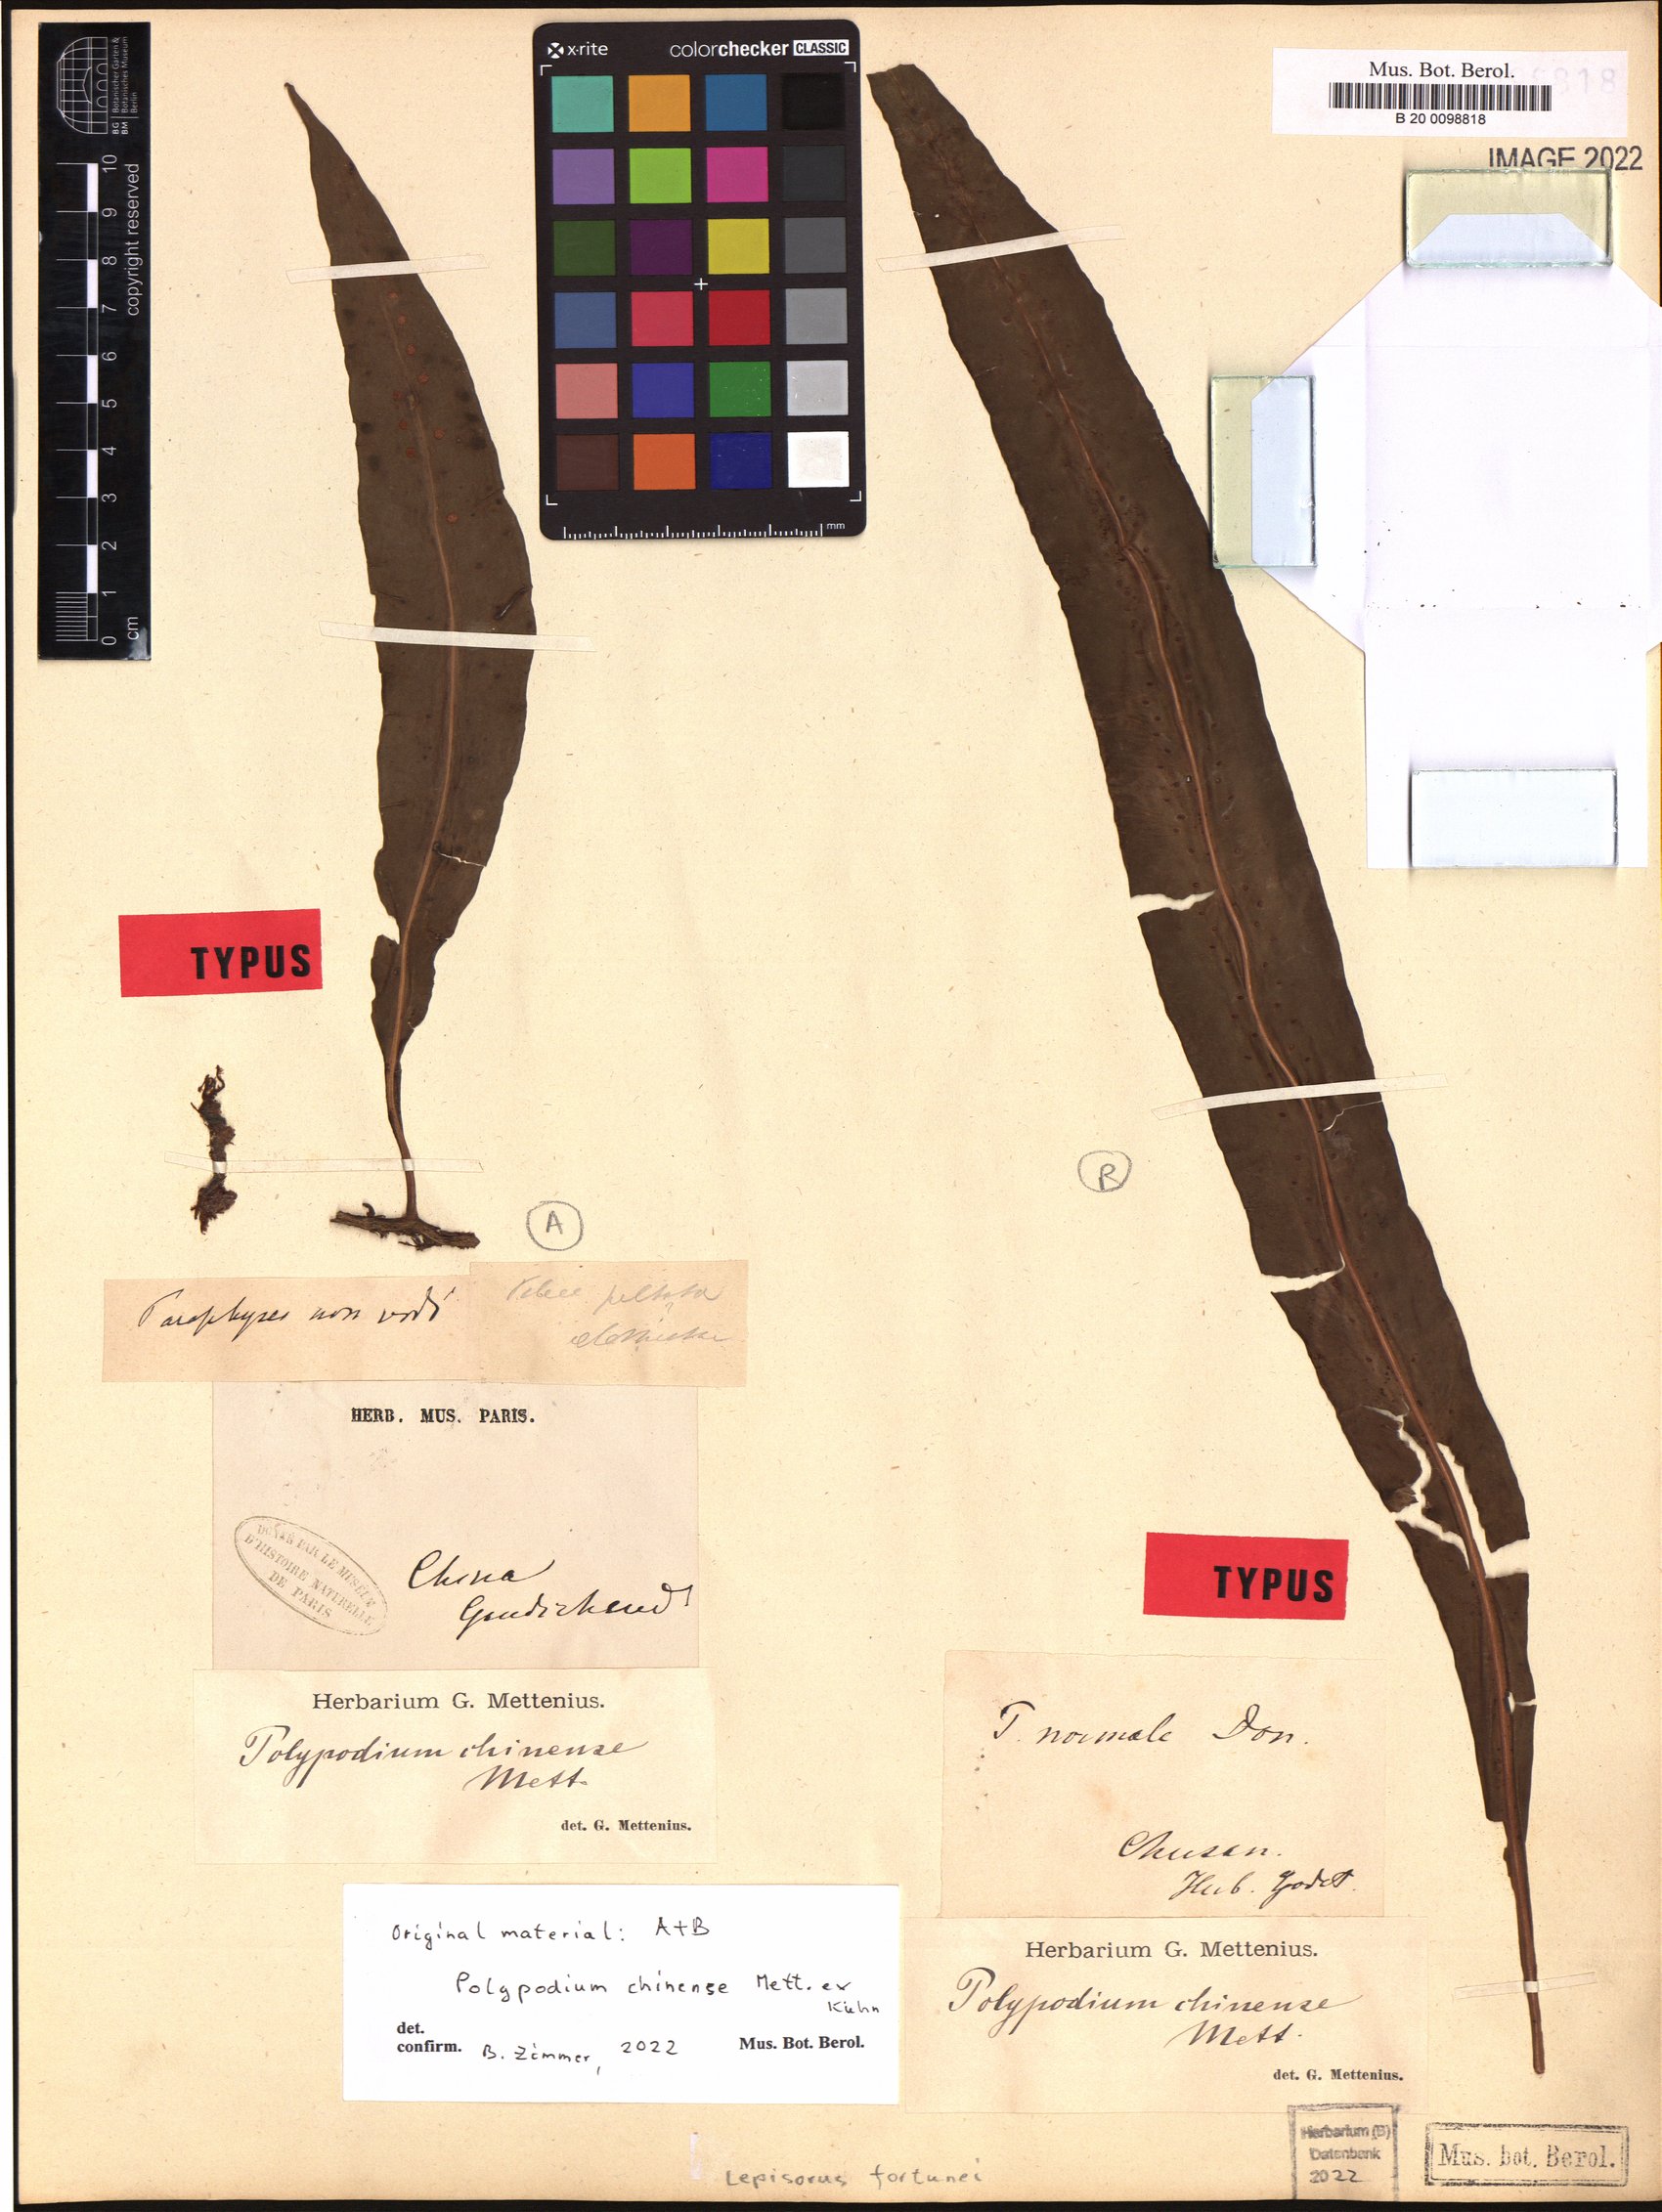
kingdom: Plantae
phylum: Tracheophyta
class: Polypodiopsida
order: Polypodiales
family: Polypodiaceae
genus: Lepisorus
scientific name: Lepisorus fortuni
